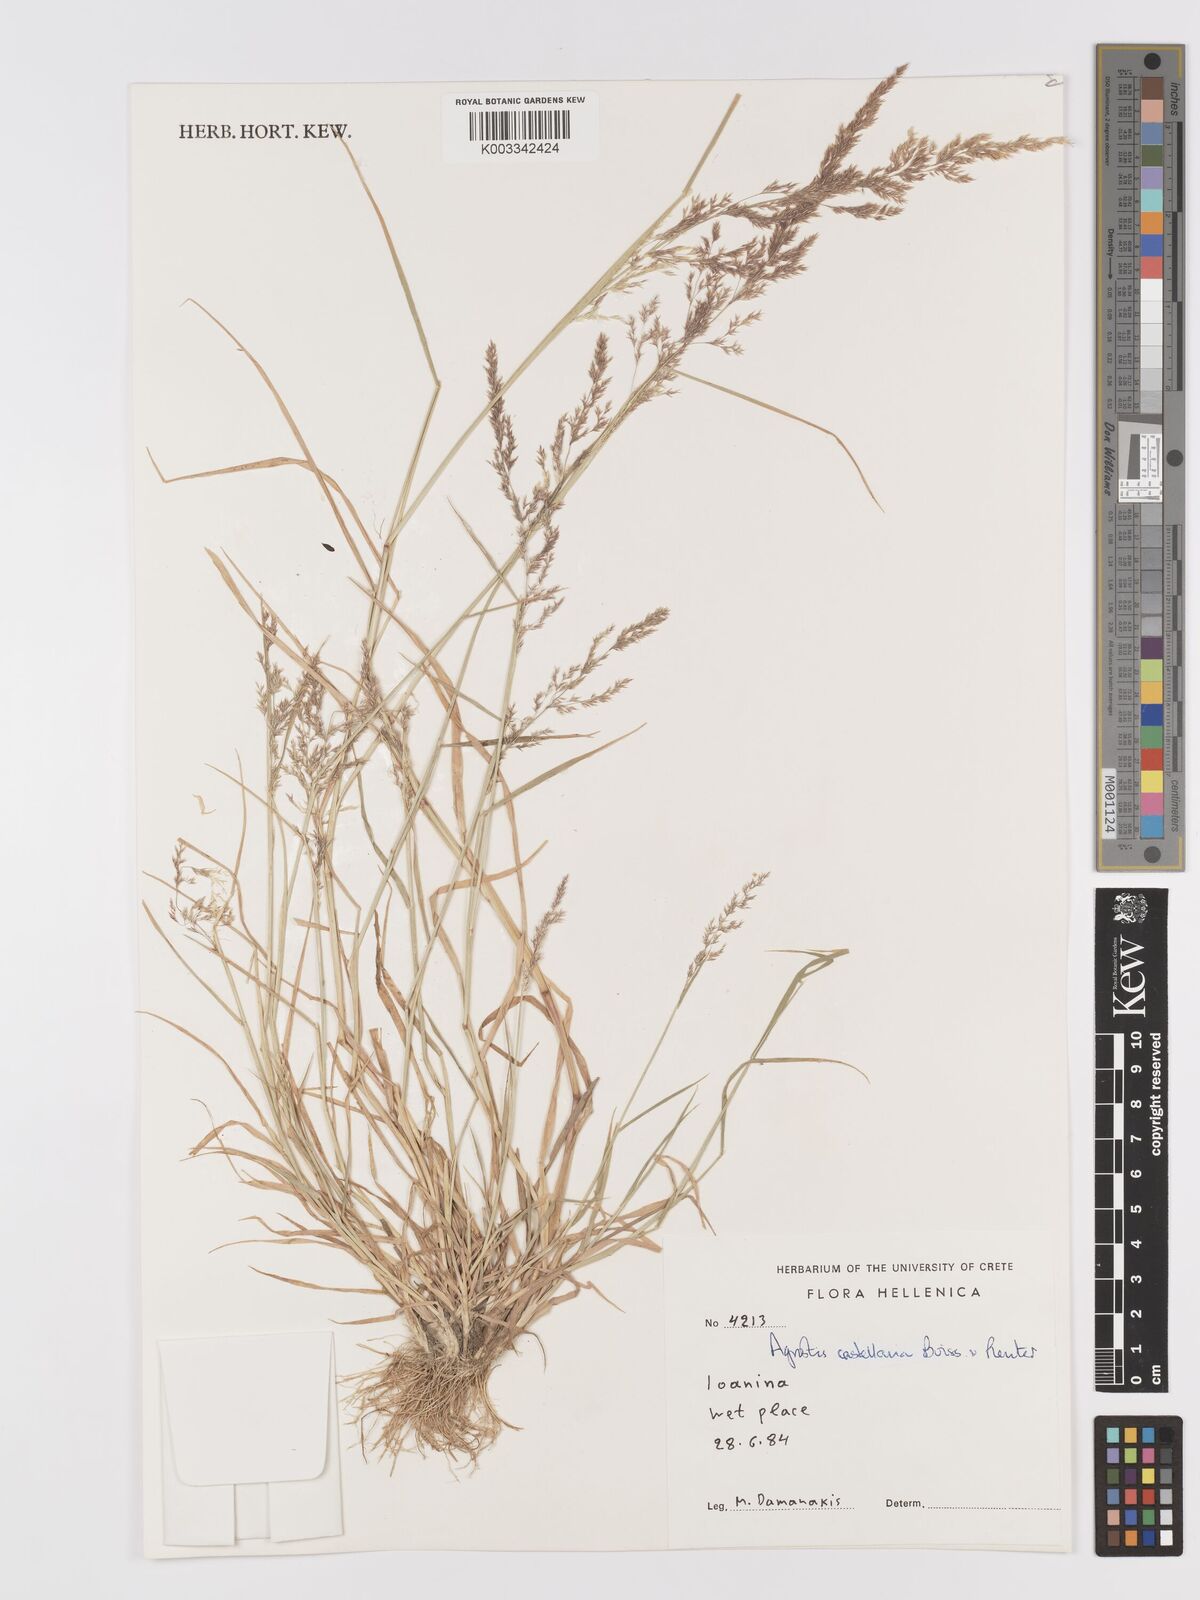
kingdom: Plantae
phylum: Tracheophyta
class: Liliopsida
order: Poales
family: Poaceae
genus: Agrostis
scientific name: Agrostis castellana
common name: Highland bent
